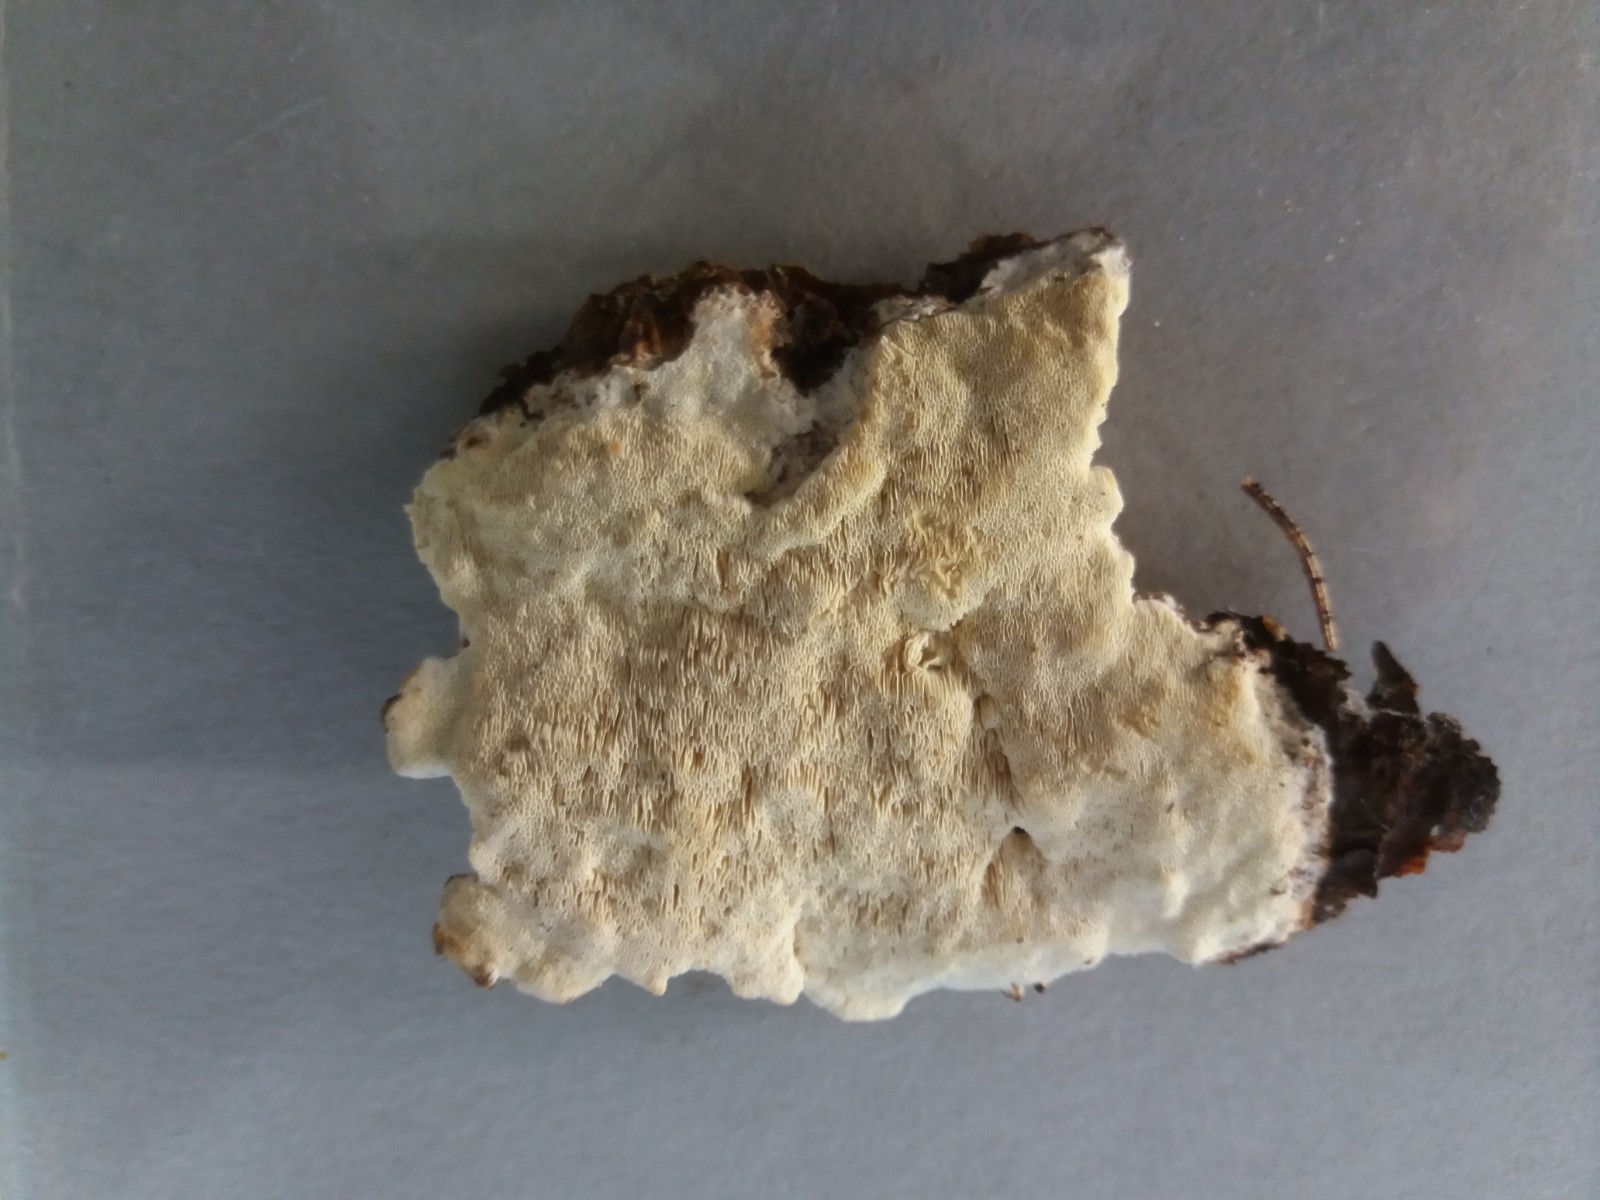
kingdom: Fungi
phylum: Basidiomycota
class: Agaricomycetes
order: Polyporales
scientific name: Polyporales
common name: poresvampordenen
